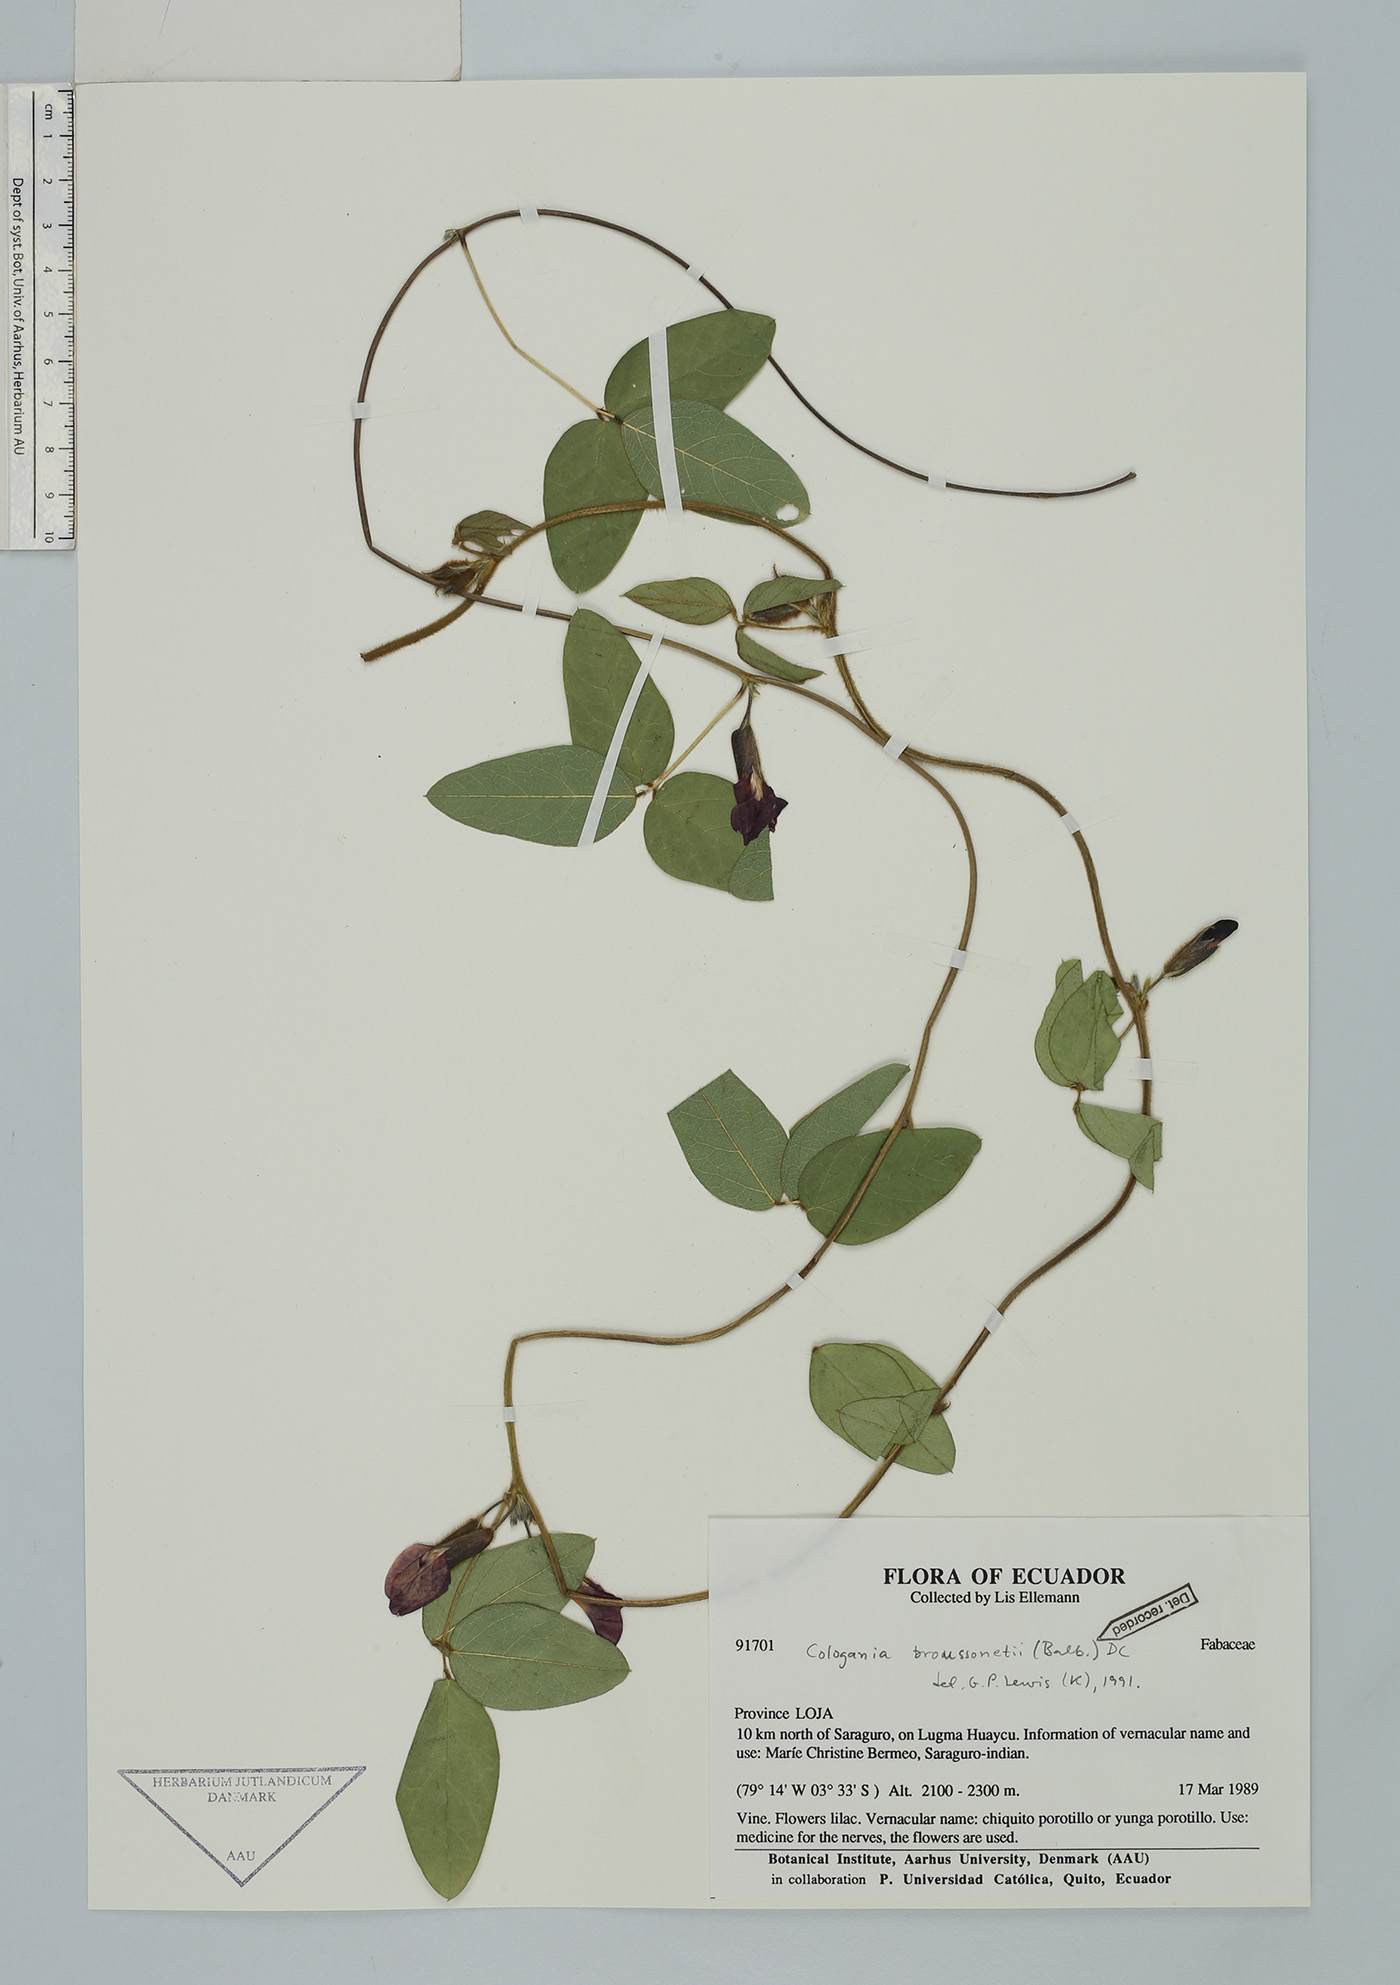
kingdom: Plantae
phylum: Tracheophyta
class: Magnoliopsida
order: Fabales
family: Fabaceae
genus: Cologania
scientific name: Cologania broussonetii
